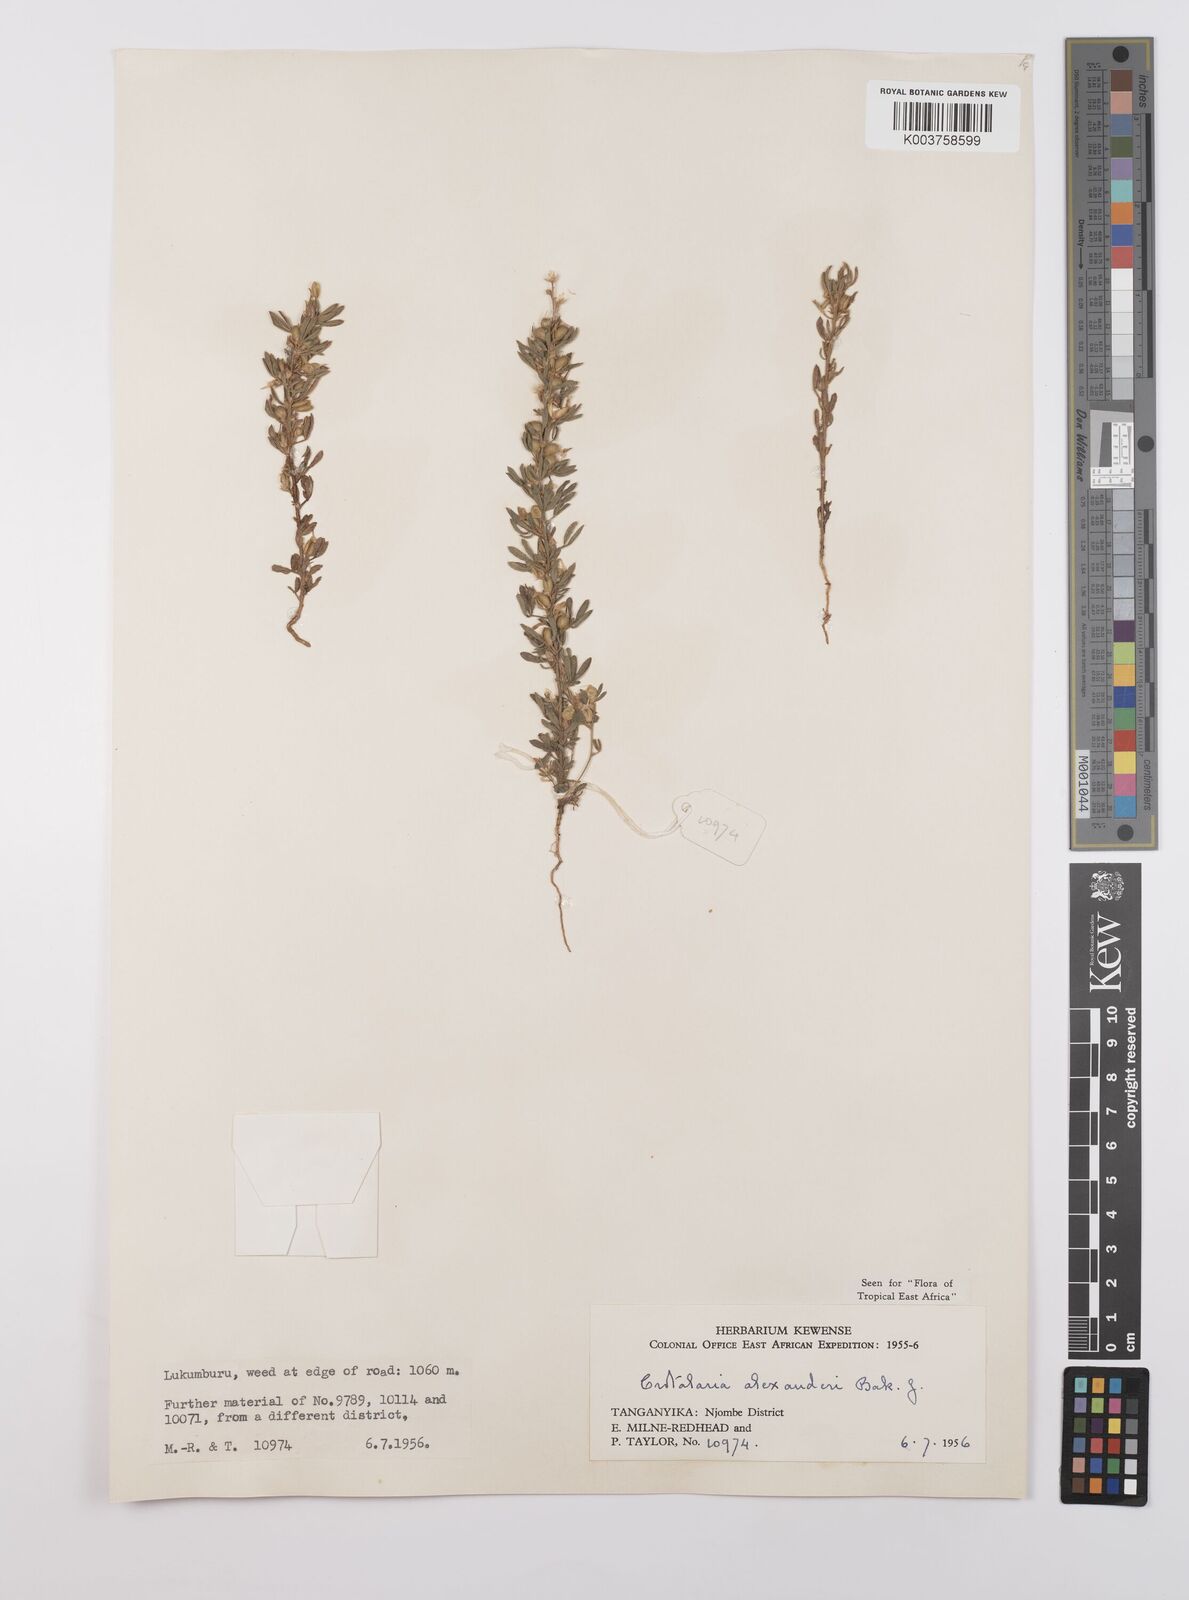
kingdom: Plantae
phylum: Tracheophyta
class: Magnoliopsida
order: Fabales
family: Fabaceae
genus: Crotalaria
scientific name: Crotalaria alexandri
